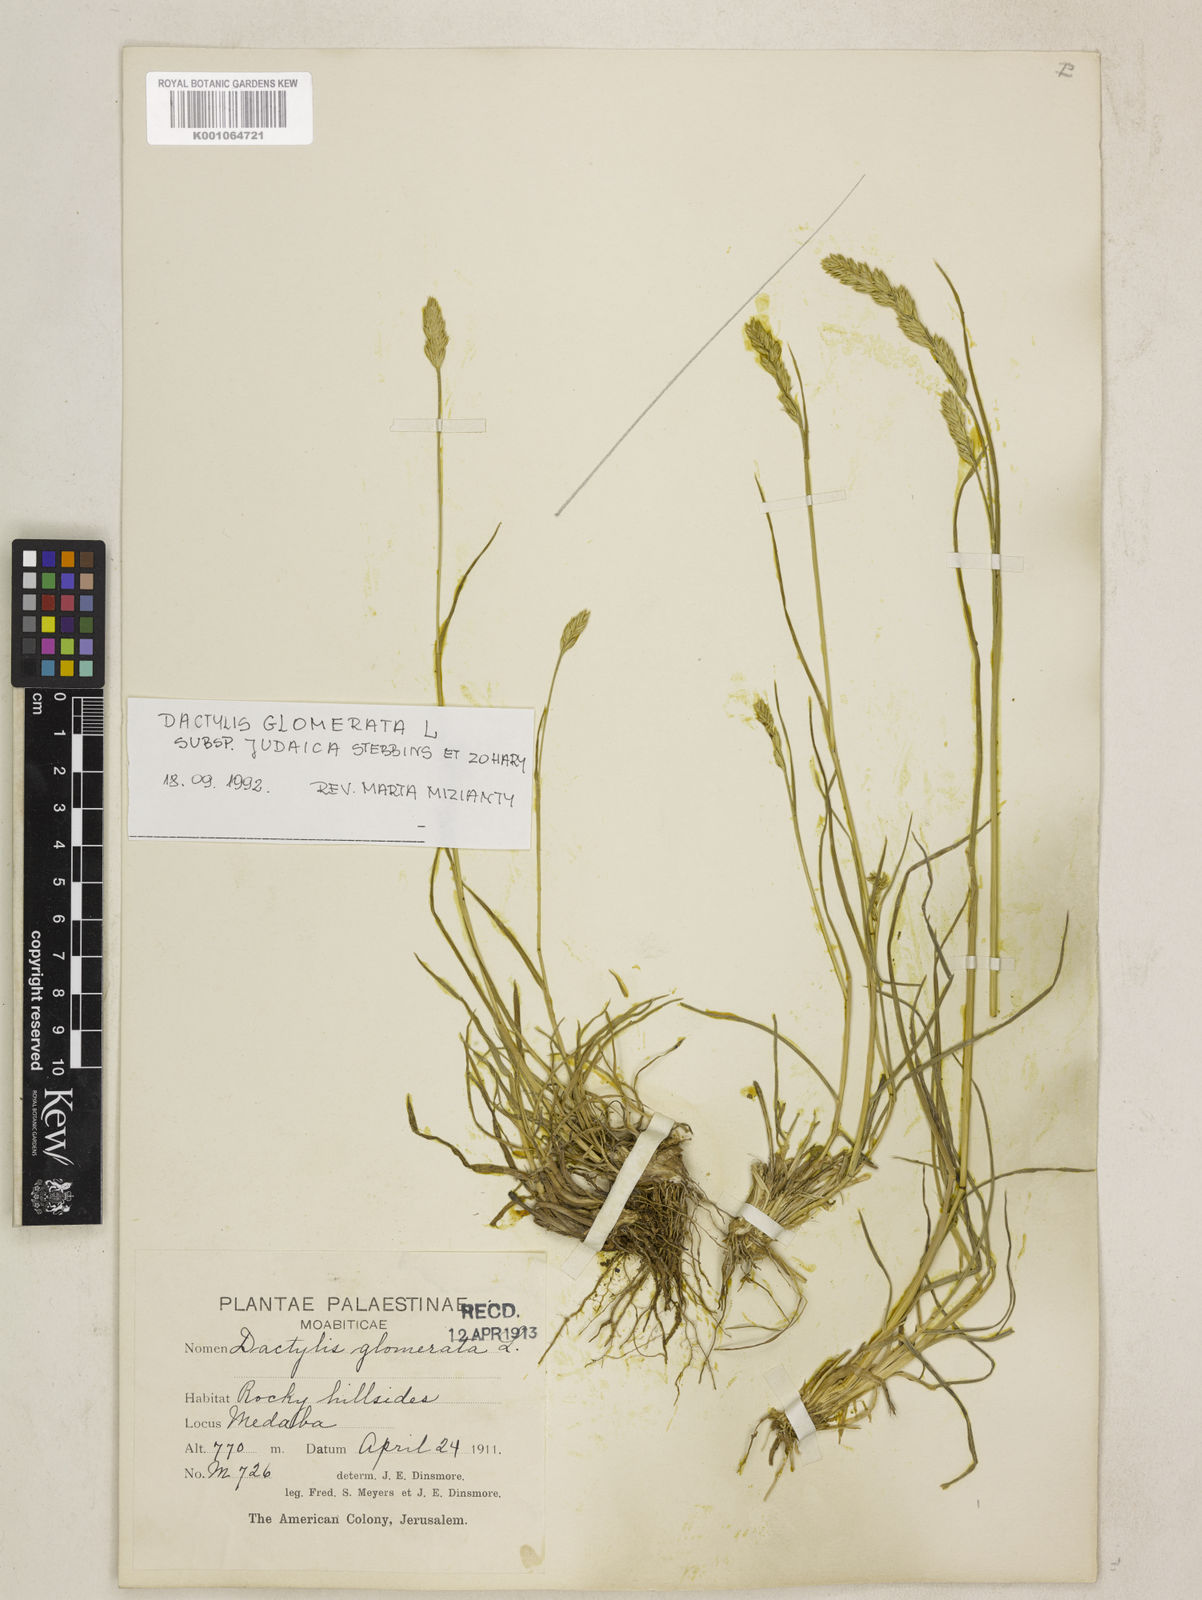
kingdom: Plantae
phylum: Tracheophyta
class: Liliopsida
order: Poales
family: Poaceae
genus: Dactylis
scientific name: Dactylis glomerata
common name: Orchardgrass
